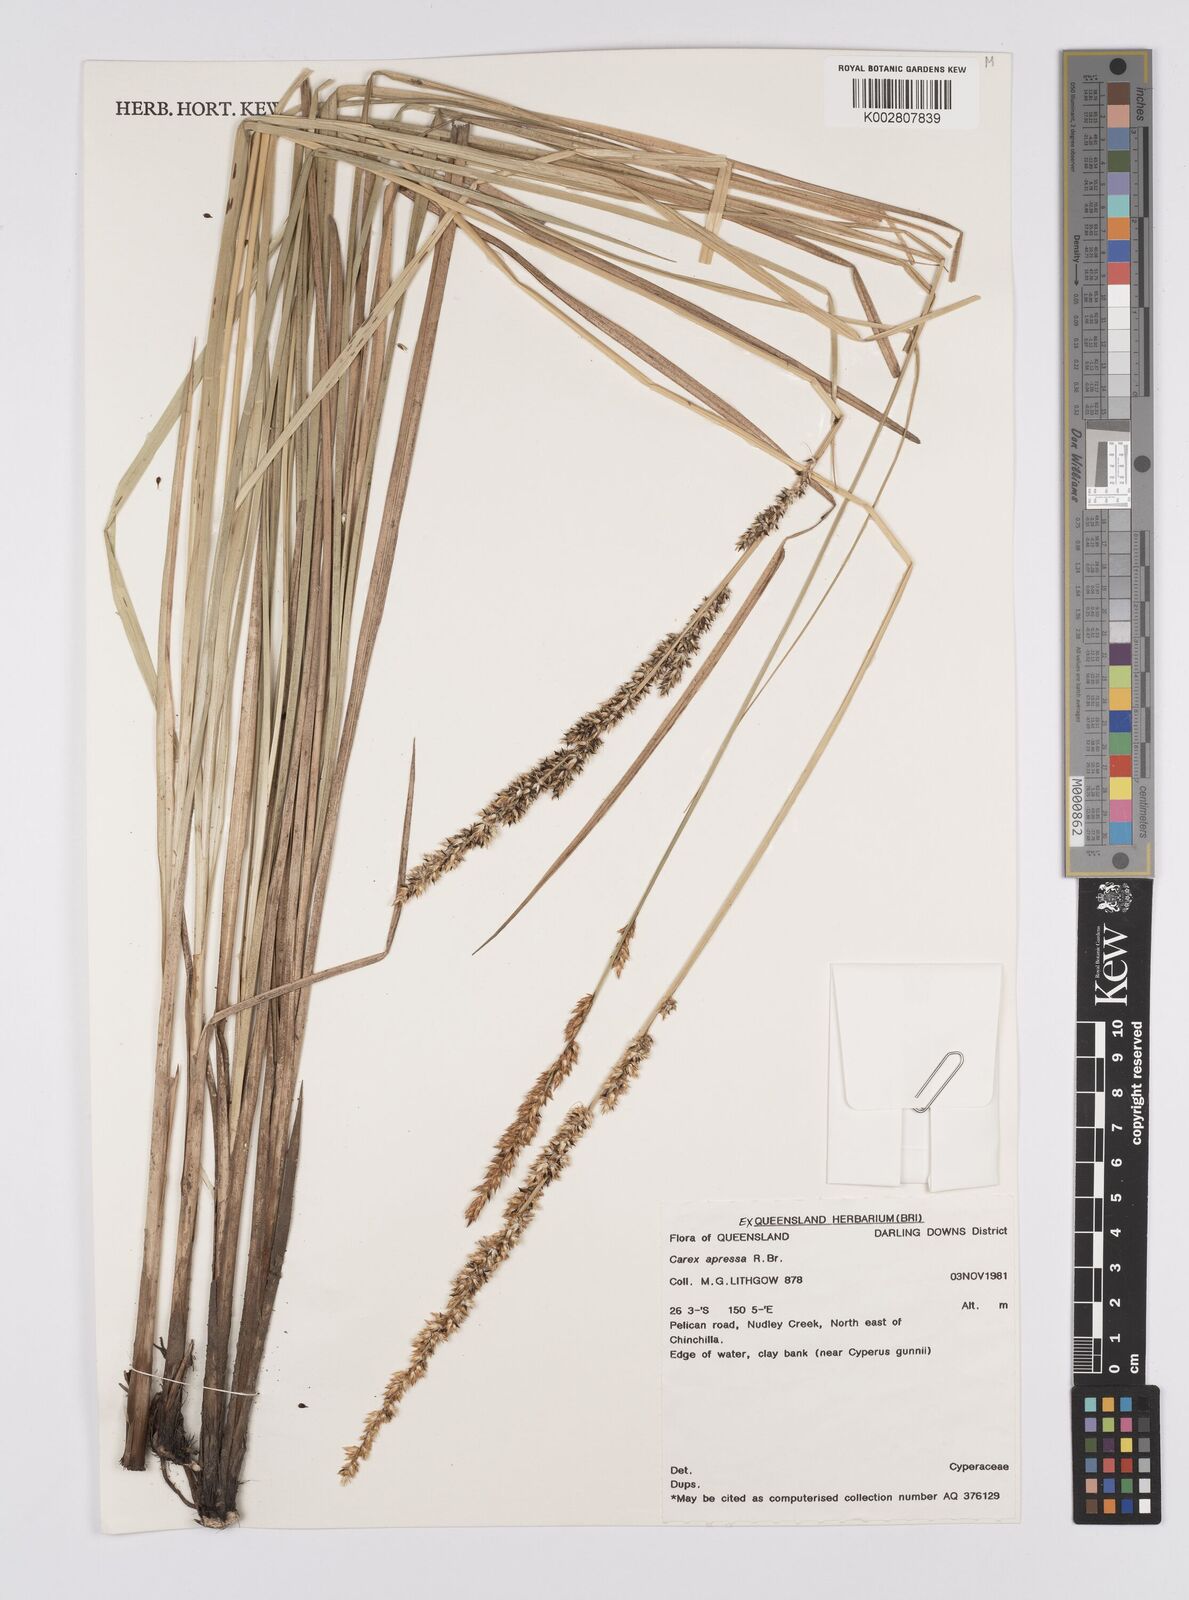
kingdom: Plantae
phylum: Tracheophyta
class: Liliopsida
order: Poales
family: Cyperaceae
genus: Carex
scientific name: Carex appressa
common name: Tussock sedge
